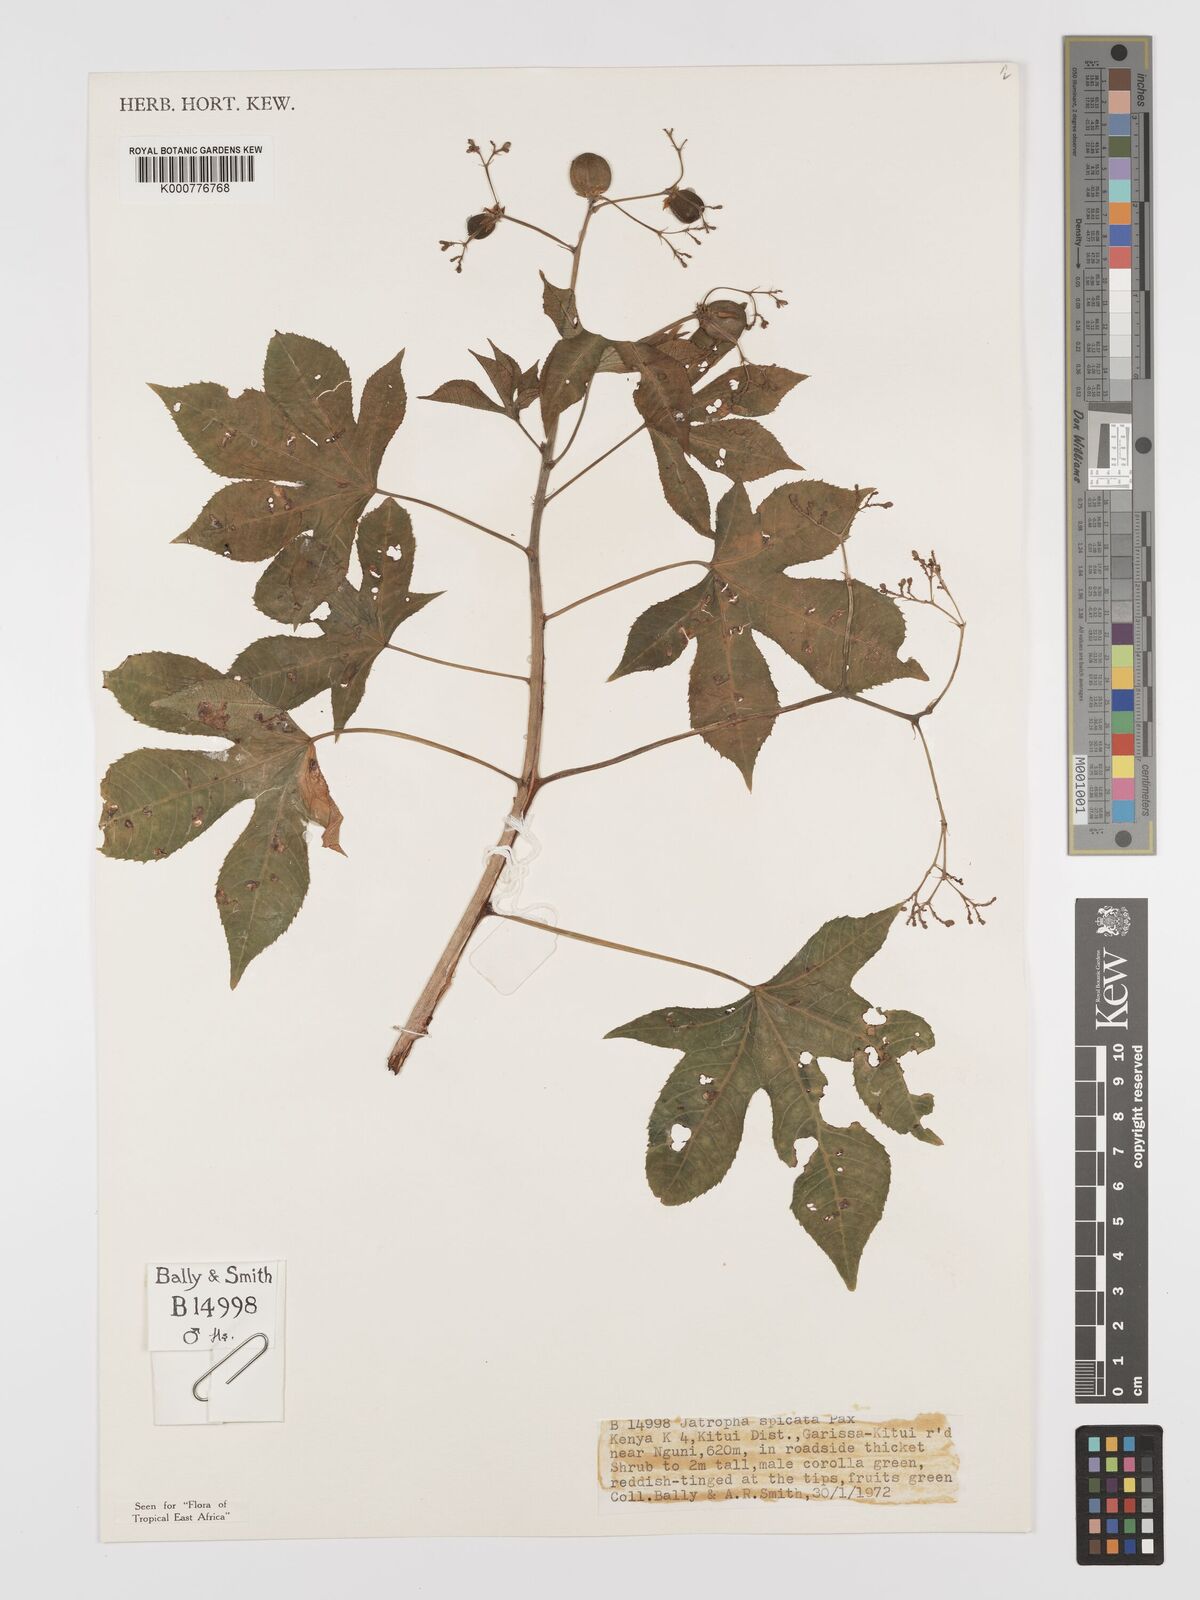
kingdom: Plantae
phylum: Tracheophyta
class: Magnoliopsida
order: Malpighiales
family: Euphorbiaceae
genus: Jatropha
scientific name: Jatropha spicata
